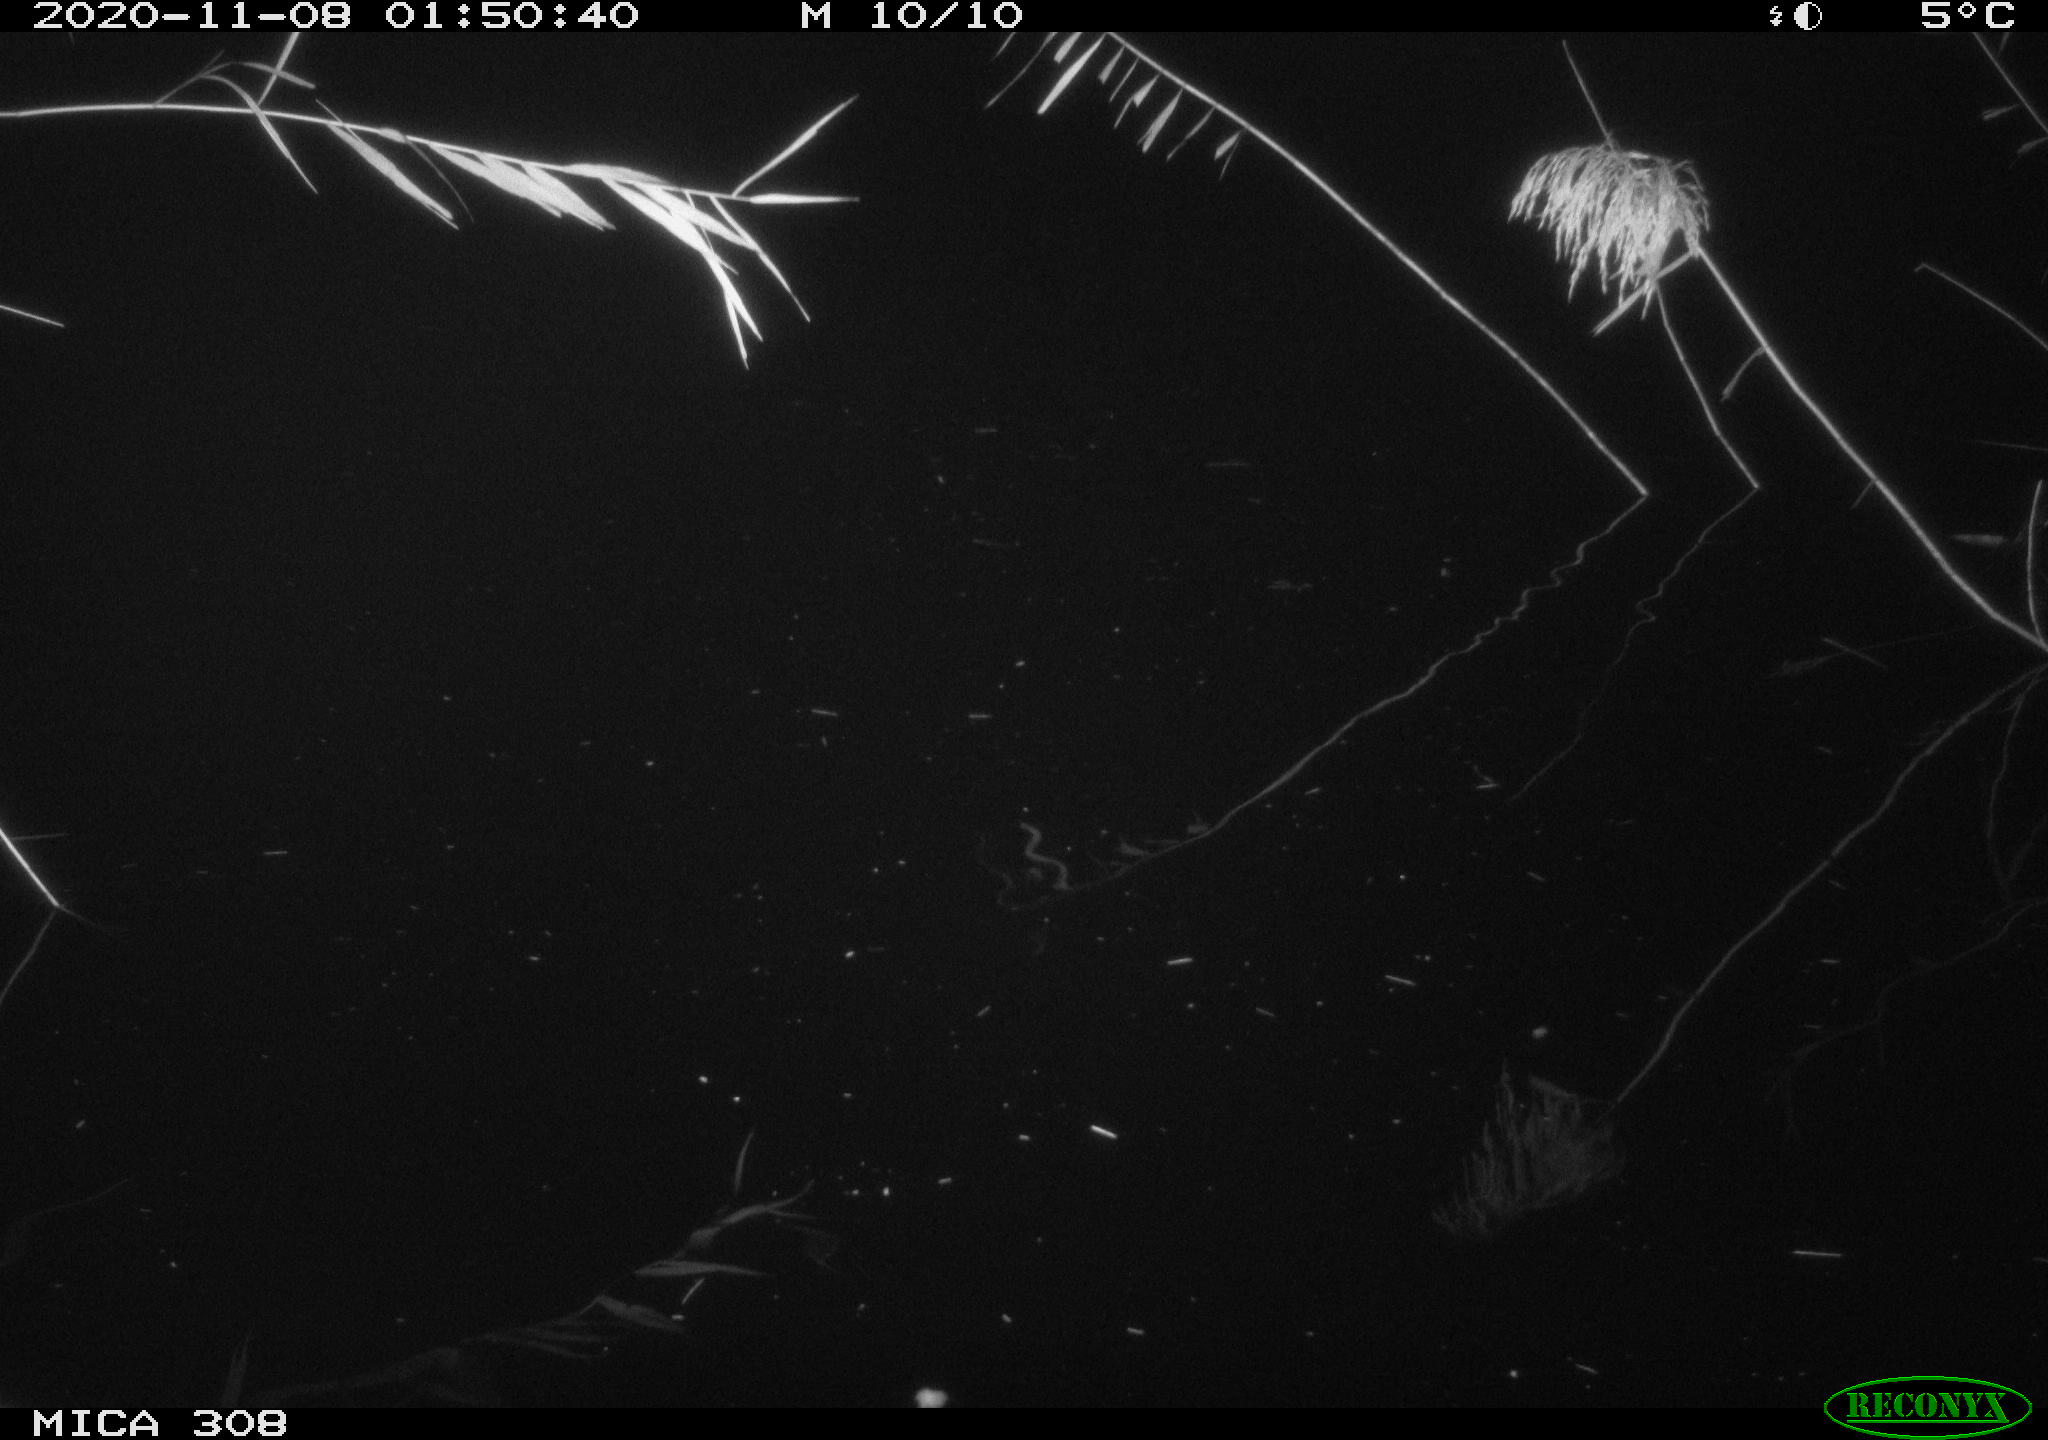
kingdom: Animalia
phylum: Chordata
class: Mammalia
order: Rodentia
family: Cricetidae
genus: Ondatra
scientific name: Ondatra zibethicus
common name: Muskrat
